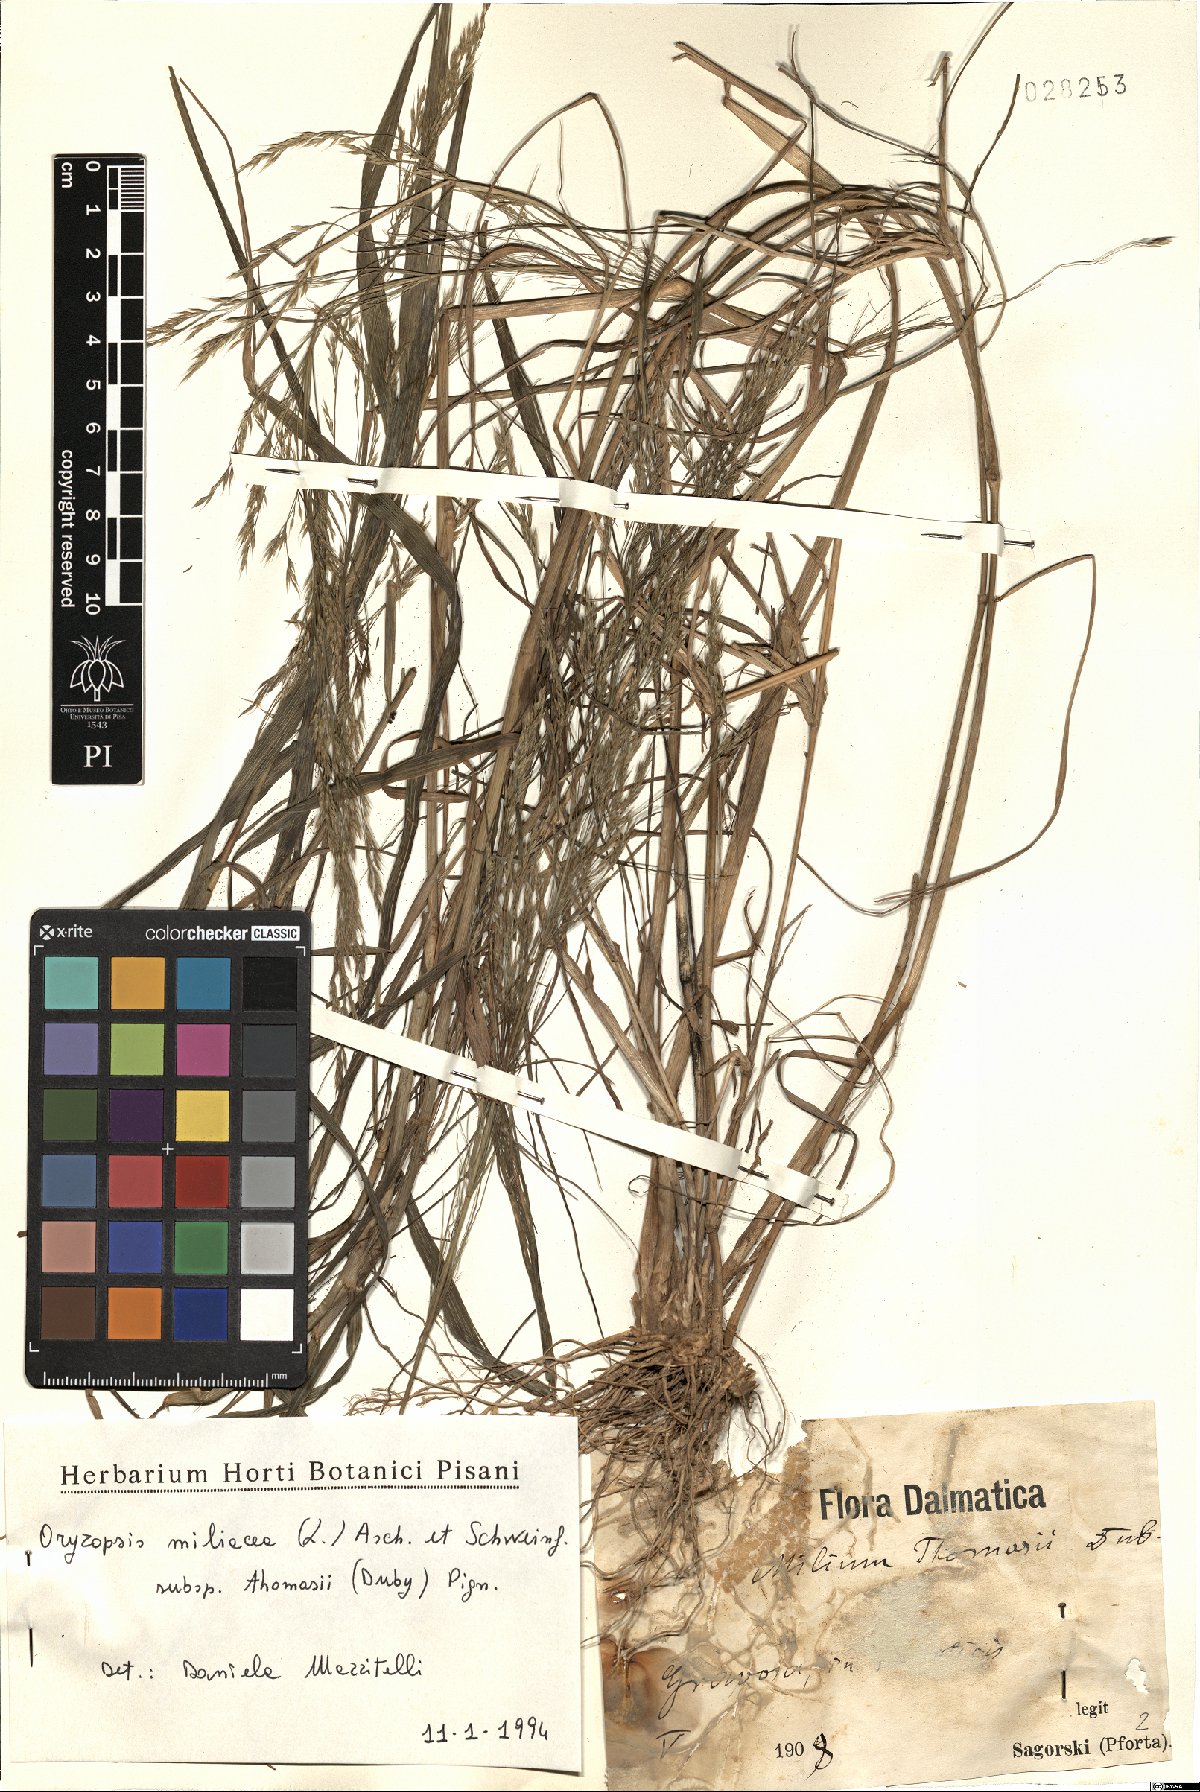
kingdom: Plantae
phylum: Tracheophyta
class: Liliopsida
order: Poales
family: Poaceae
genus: Oloptum
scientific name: Oloptum thomasii
